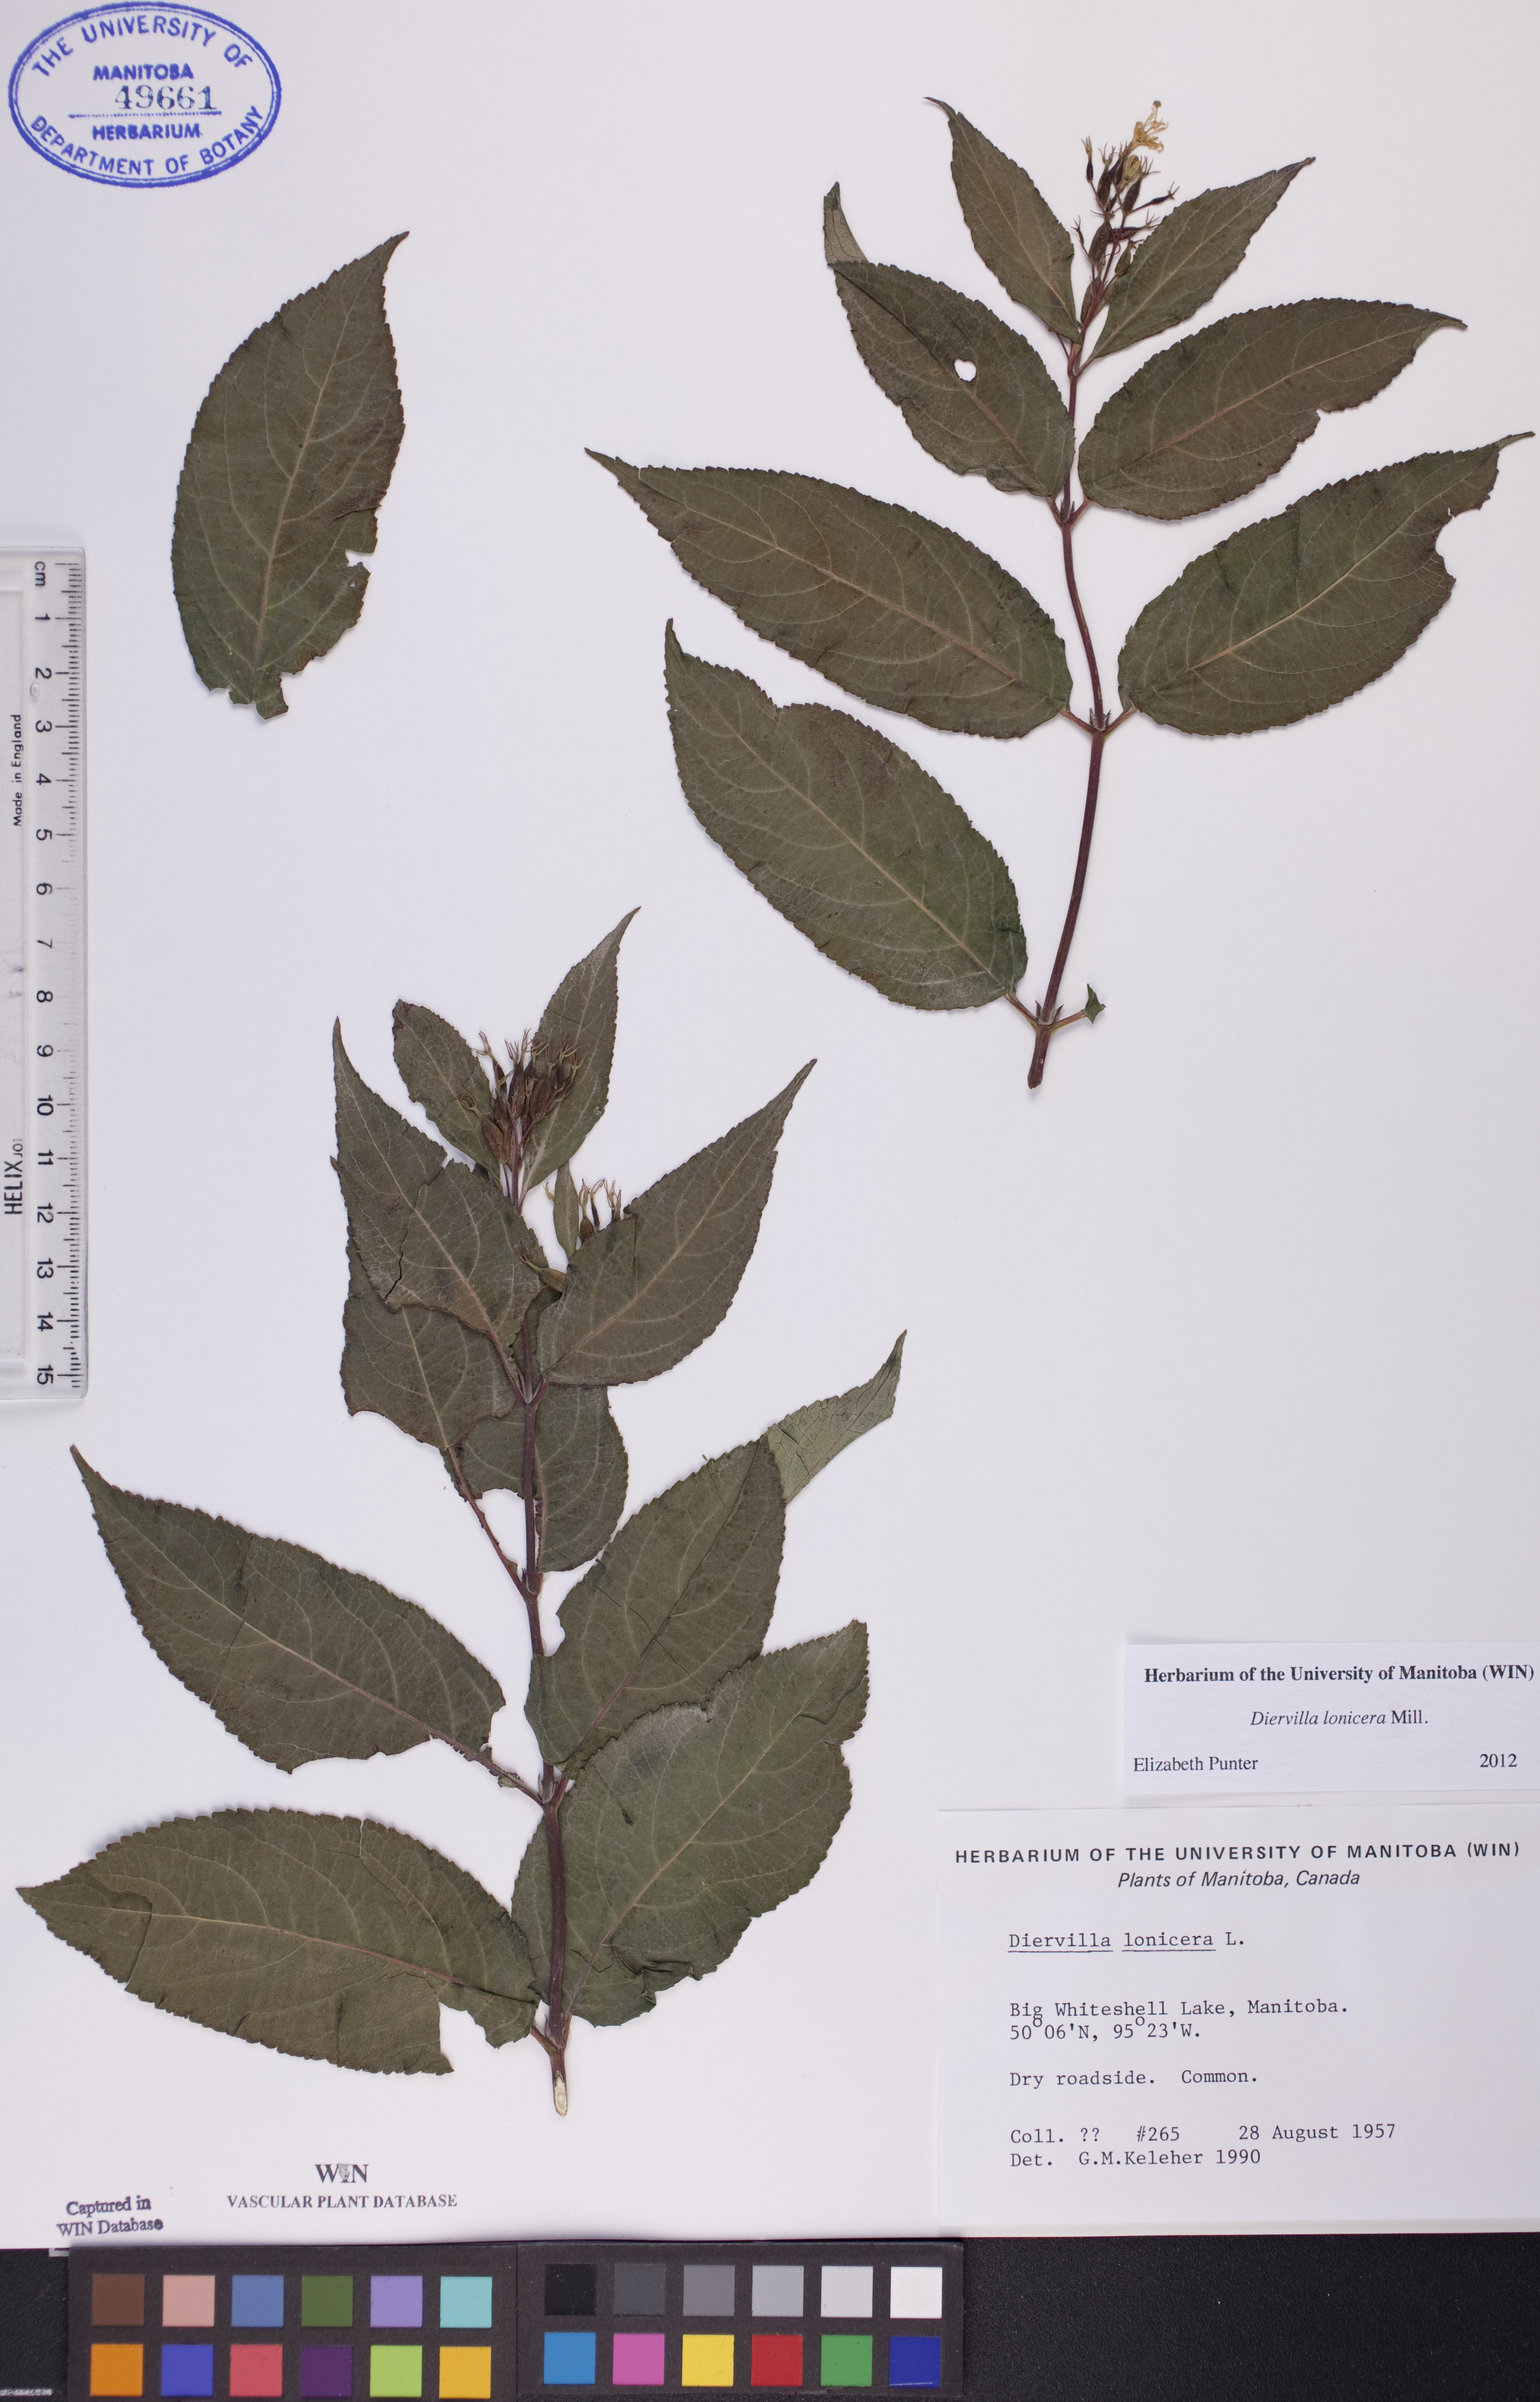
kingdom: Plantae
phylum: Tracheophyta
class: Magnoliopsida
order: Dipsacales
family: Caprifoliaceae
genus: Diervilla
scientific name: Diervilla lonicera
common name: Bush-honeysuckle
